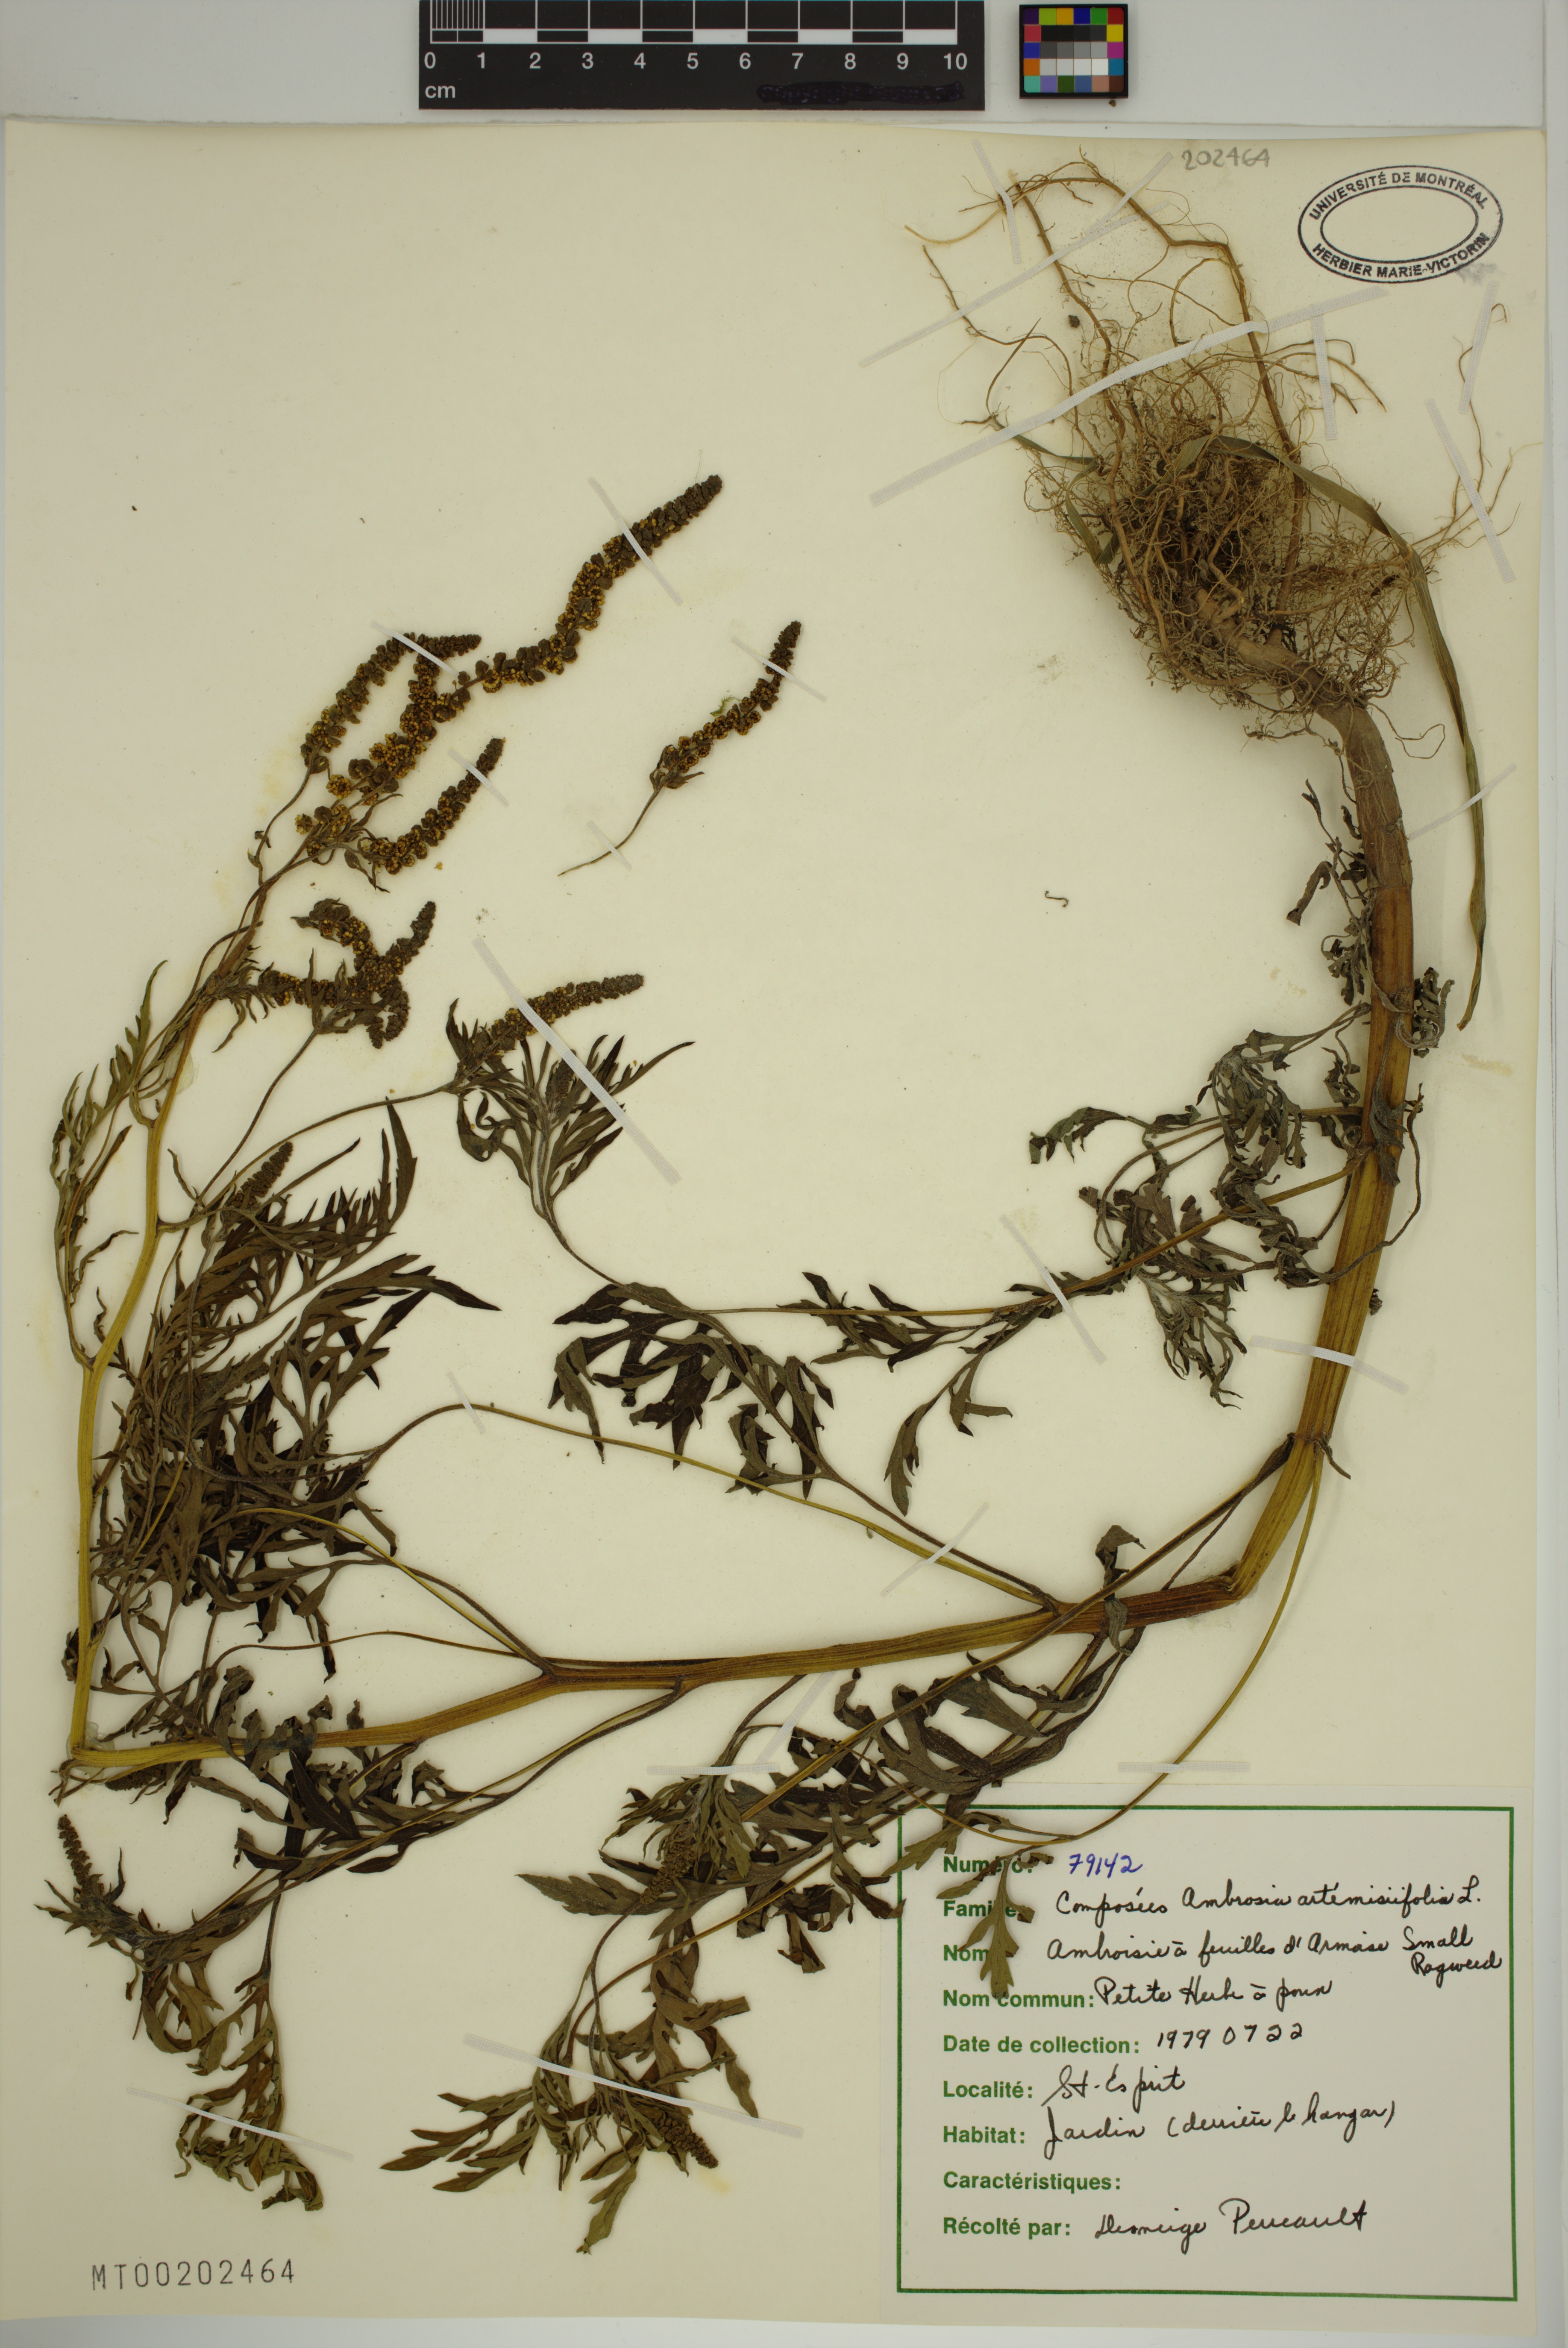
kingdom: Plantae
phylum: Tracheophyta
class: Magnoliopsida
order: Asterales
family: Asteraceae
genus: Ambrosia
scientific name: Ambrosia artemisiifolia
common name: Annual ragweed
